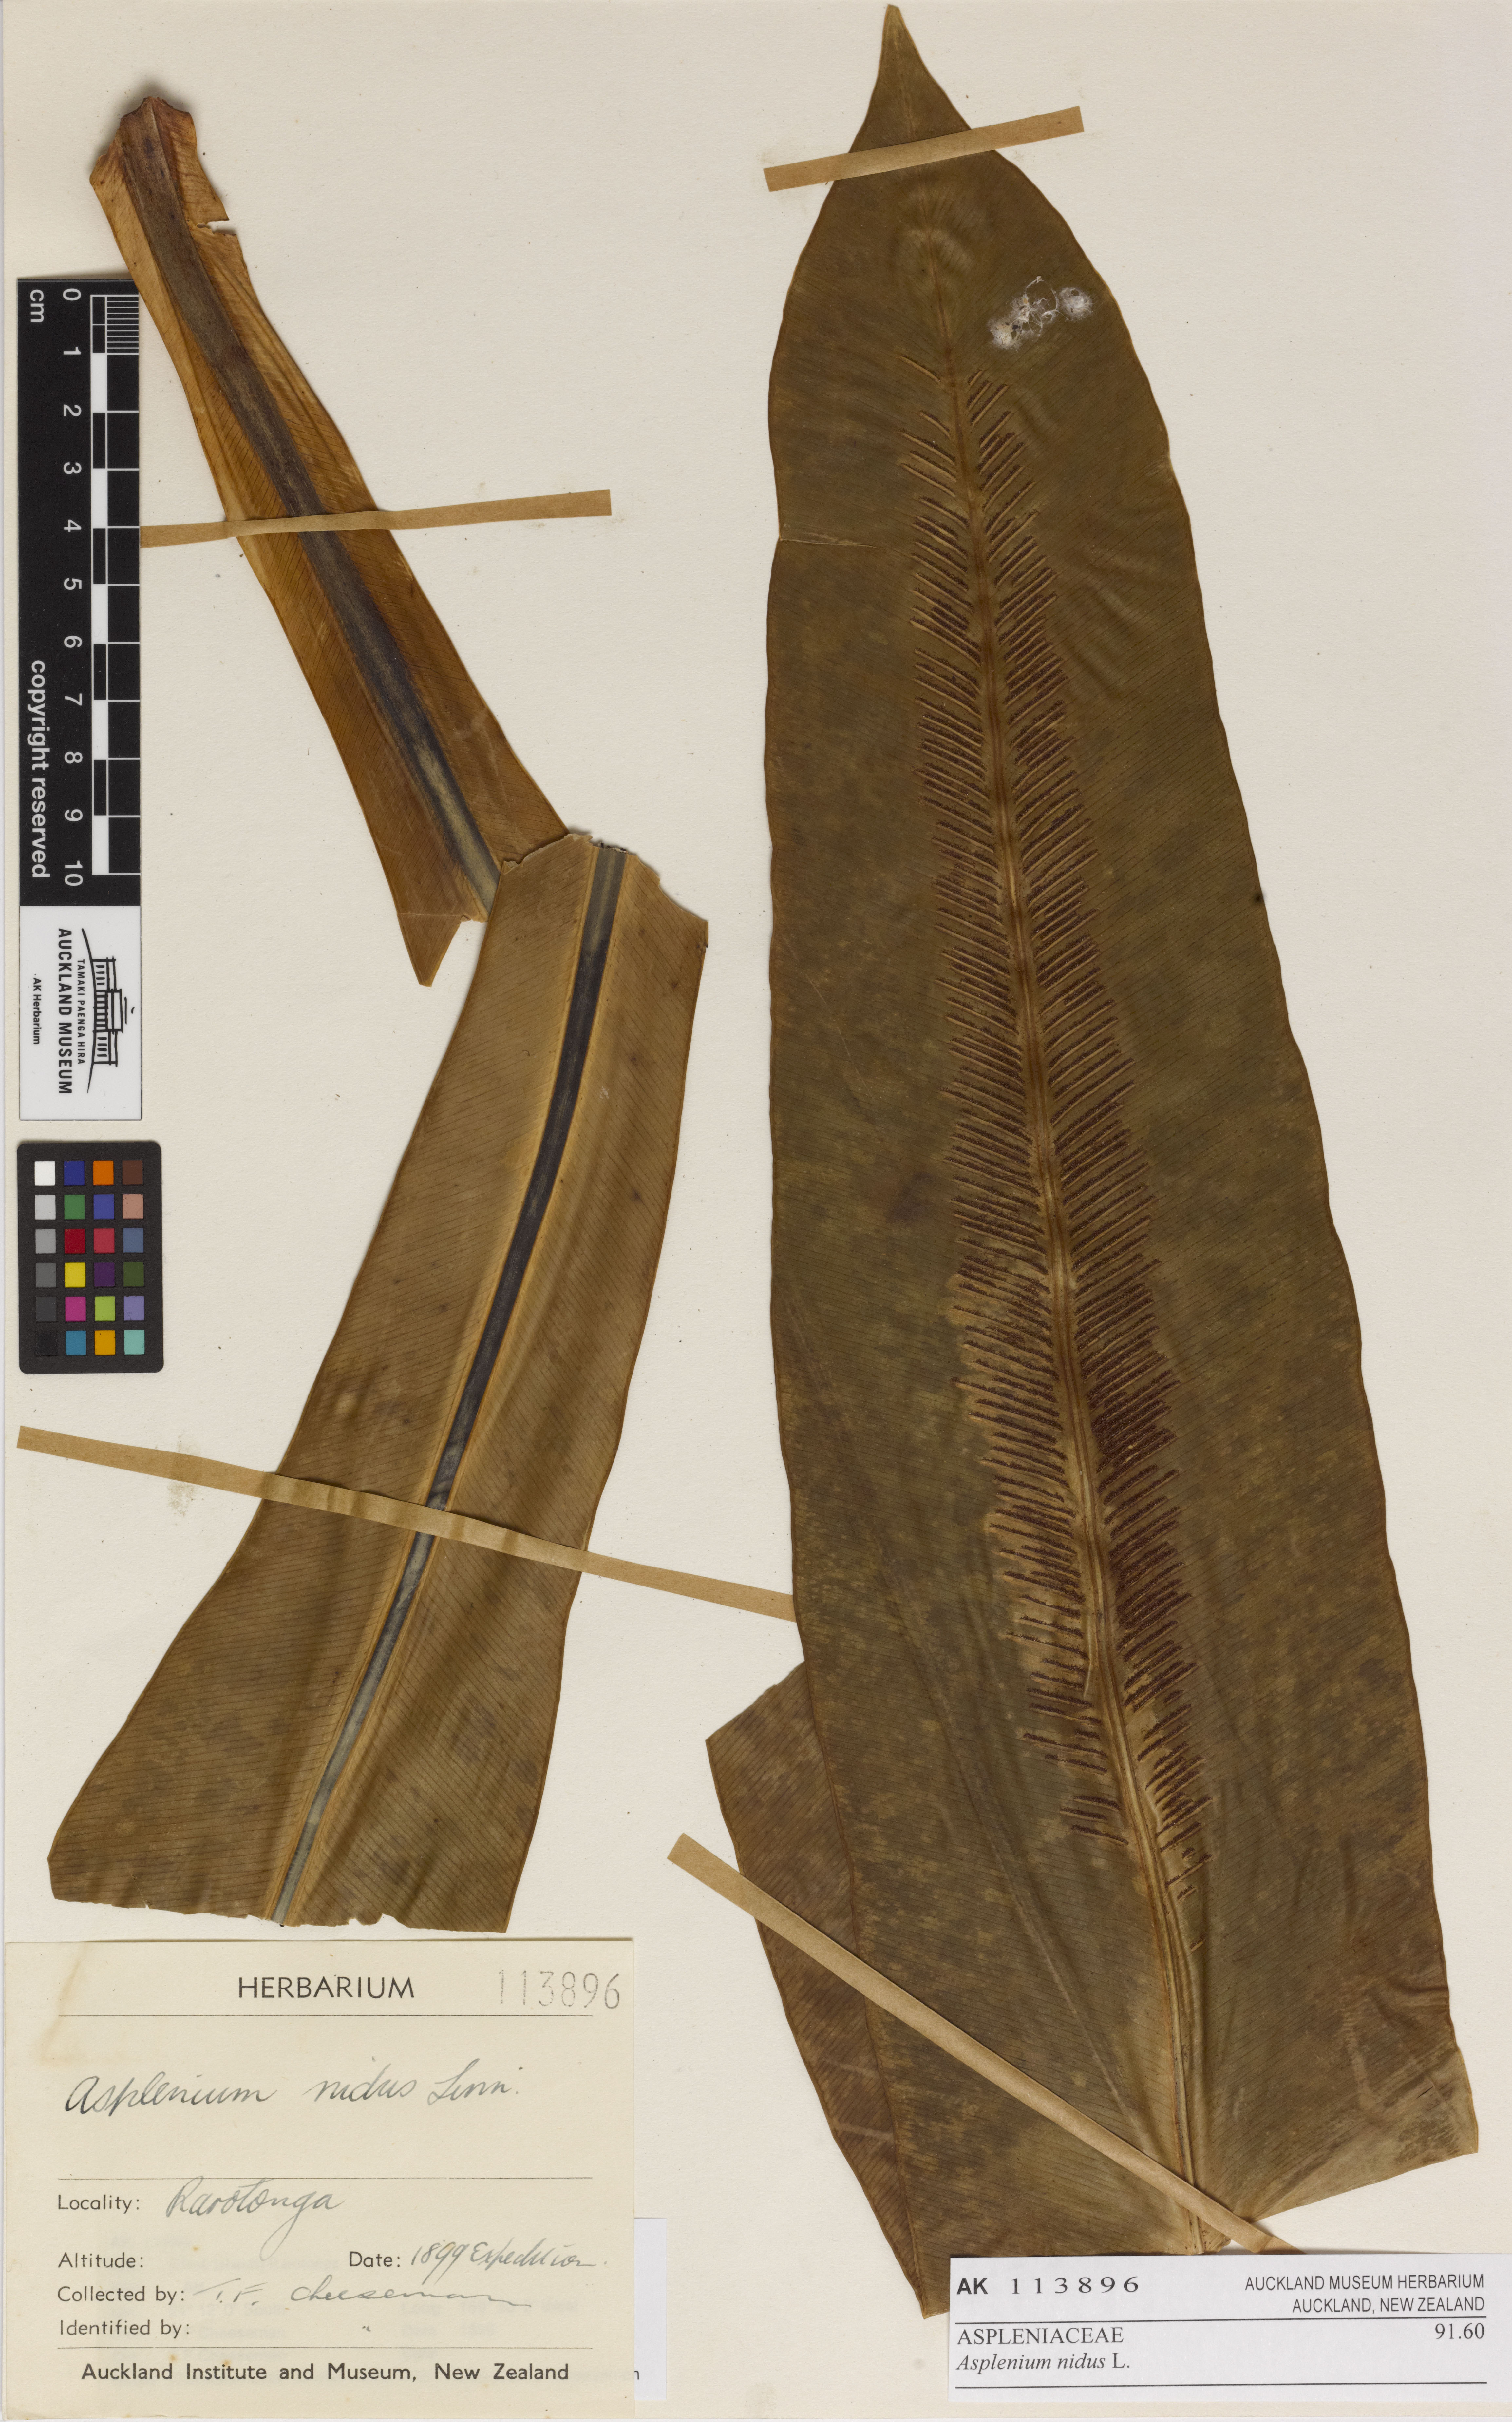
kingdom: Plantae
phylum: Tracheophyta
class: Polypodiopsida
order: Polypodiales
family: Aspleniaceae
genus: Asplenium
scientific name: Asplenium nidus
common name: Bird's-nest fern
